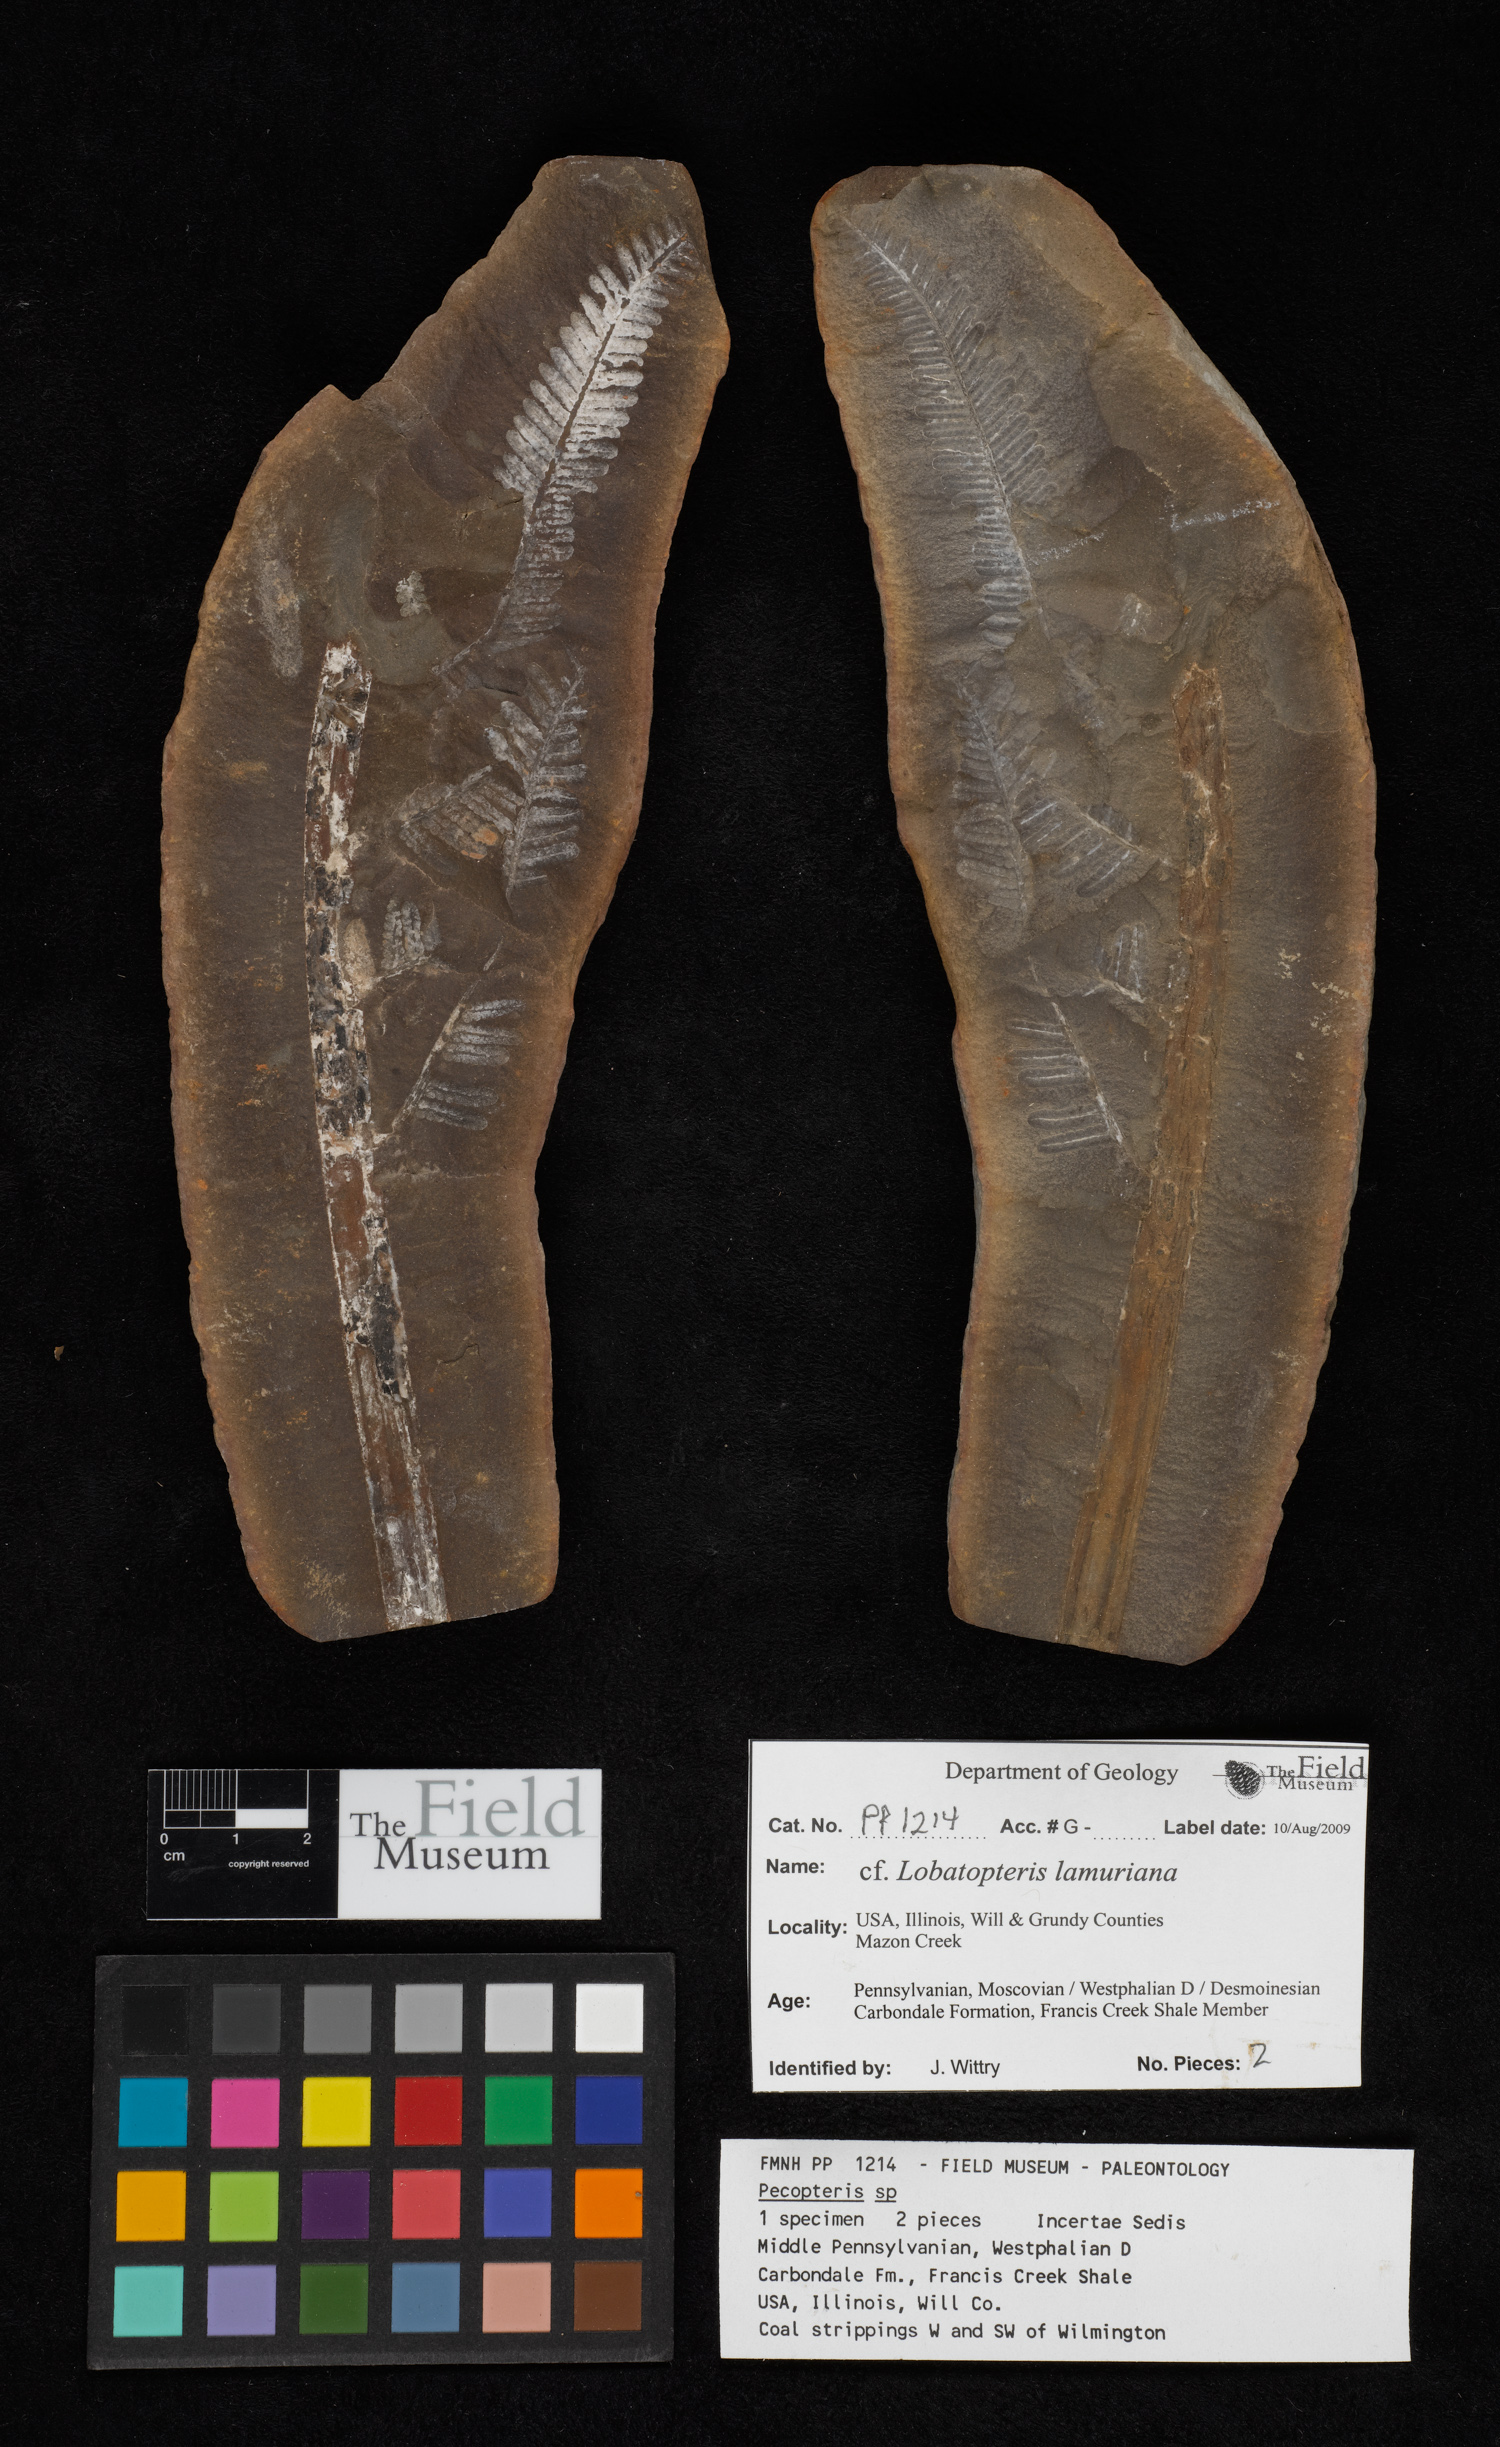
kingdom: Plantae
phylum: Tracheophyta
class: Polypodiopsida
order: Marattiales
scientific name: Marattiales
